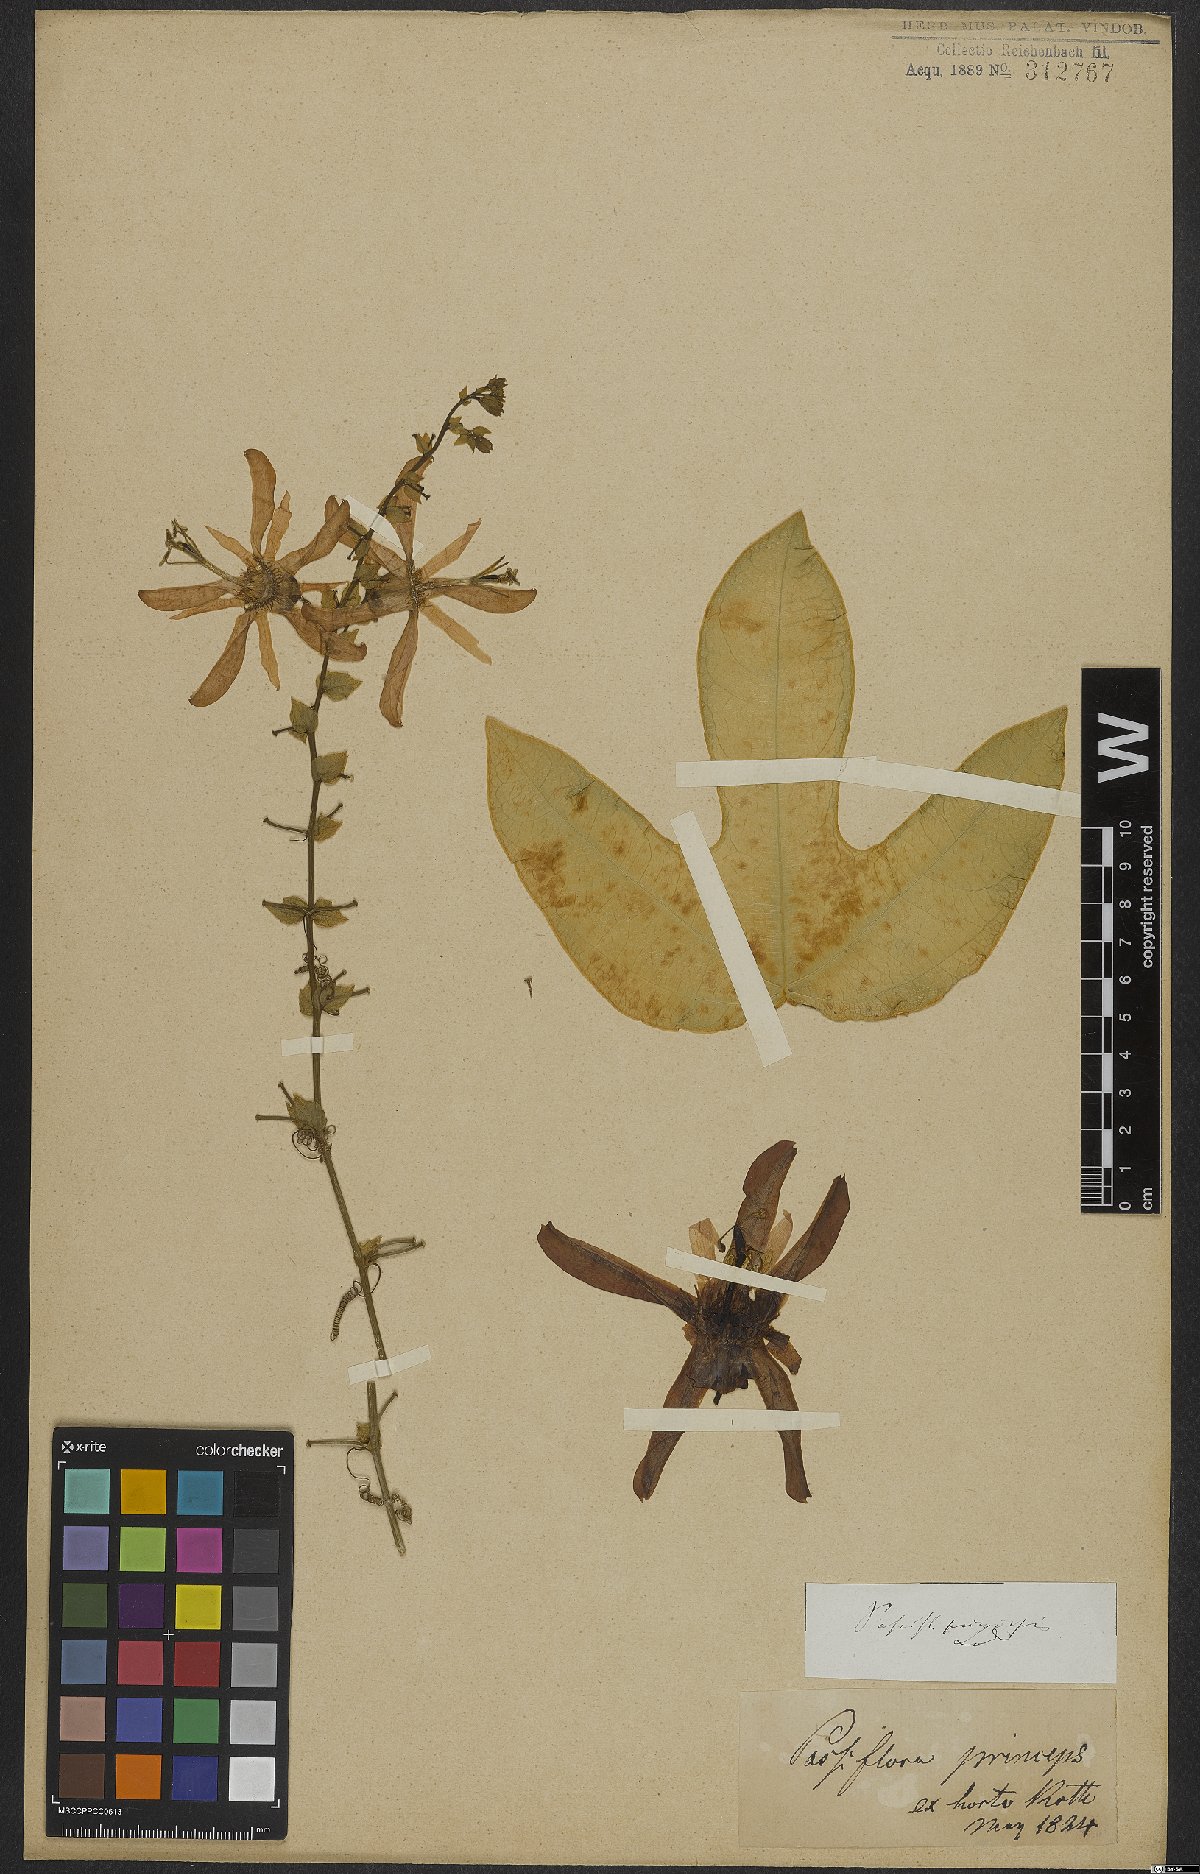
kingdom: Plantae
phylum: Tracheophyta
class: Magnoliopsida
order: Malpighiales
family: Passifloraceae
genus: Passiflora
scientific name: Passiflora racemosa
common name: Red passionflower
